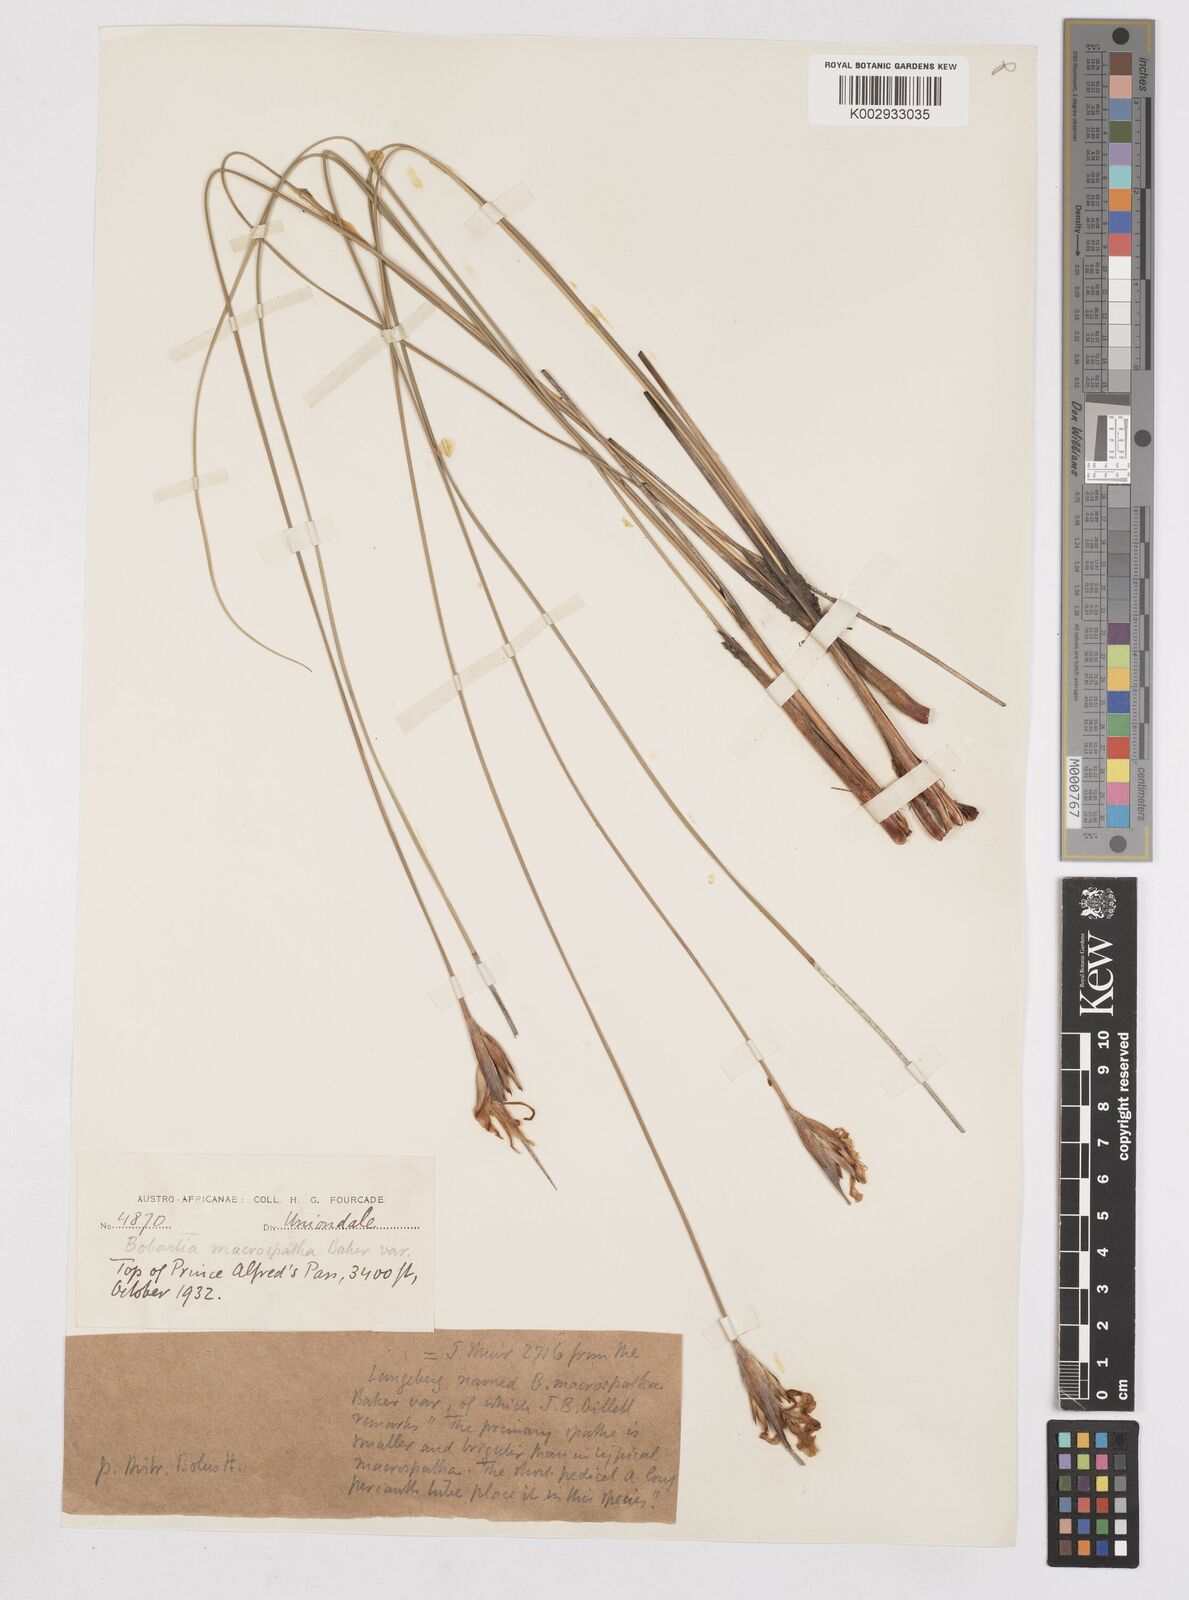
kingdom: Plantae
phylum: Tracheophyta
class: Liliopsida
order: Asparagales
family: Iridaceae
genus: Bobartia
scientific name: Bobartia macrospatha
